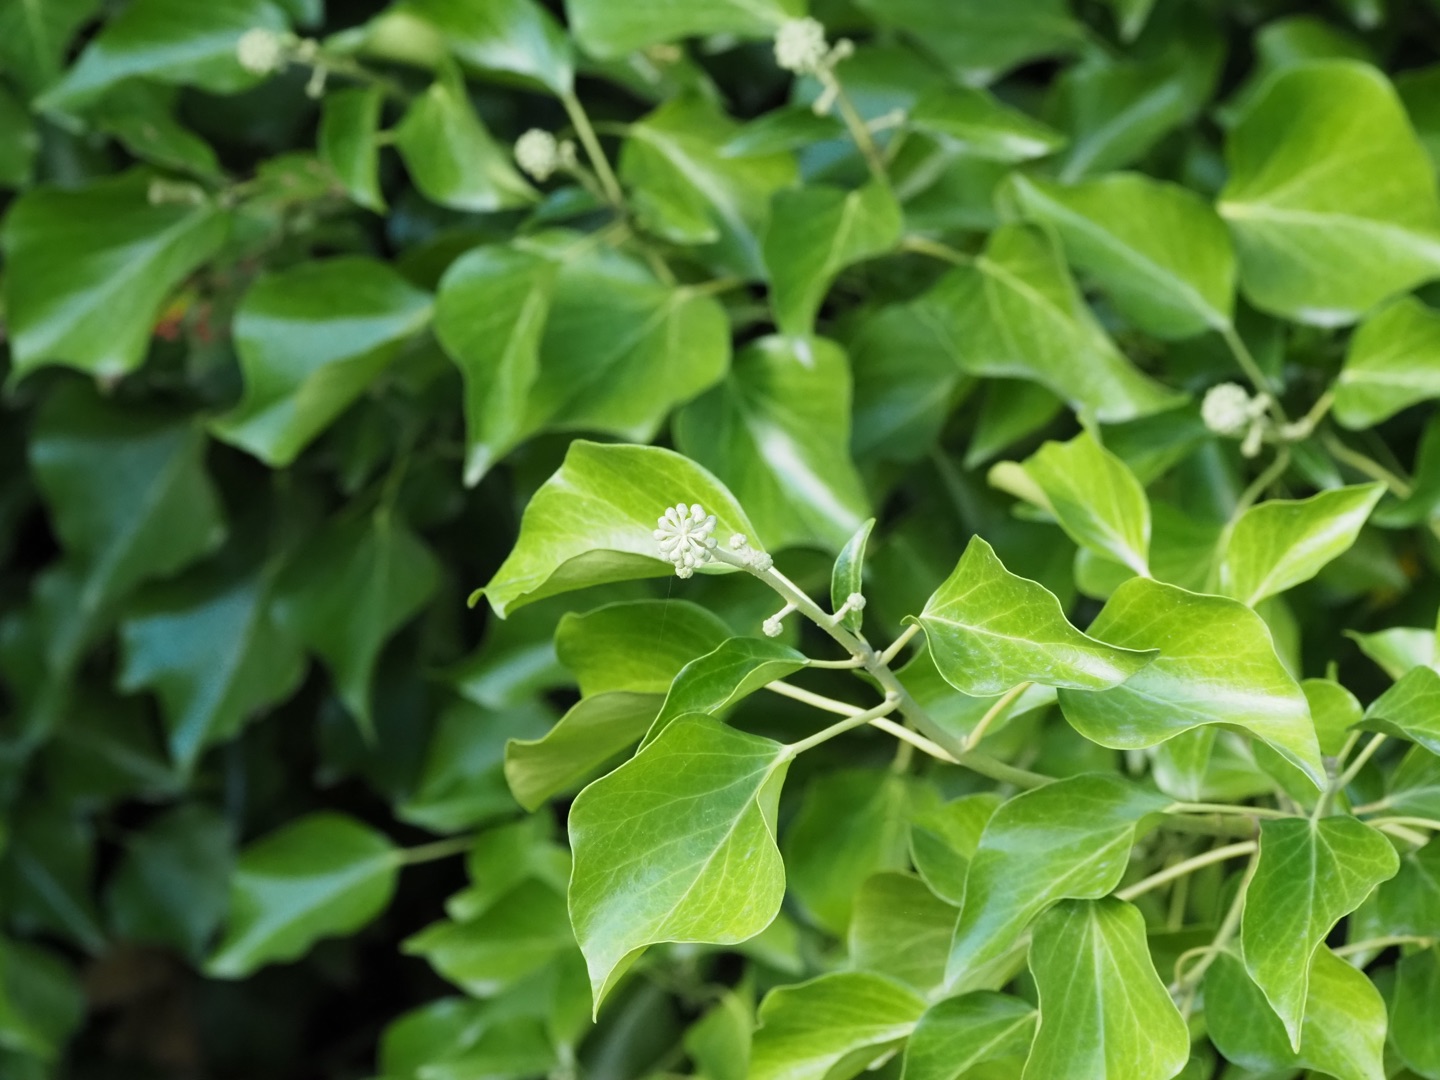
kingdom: Plantae
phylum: Tracheophyta
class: Magnoliopsida
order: Apiales
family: Araliaceae
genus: Hedera
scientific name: Hedera
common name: Vedbendslægten
